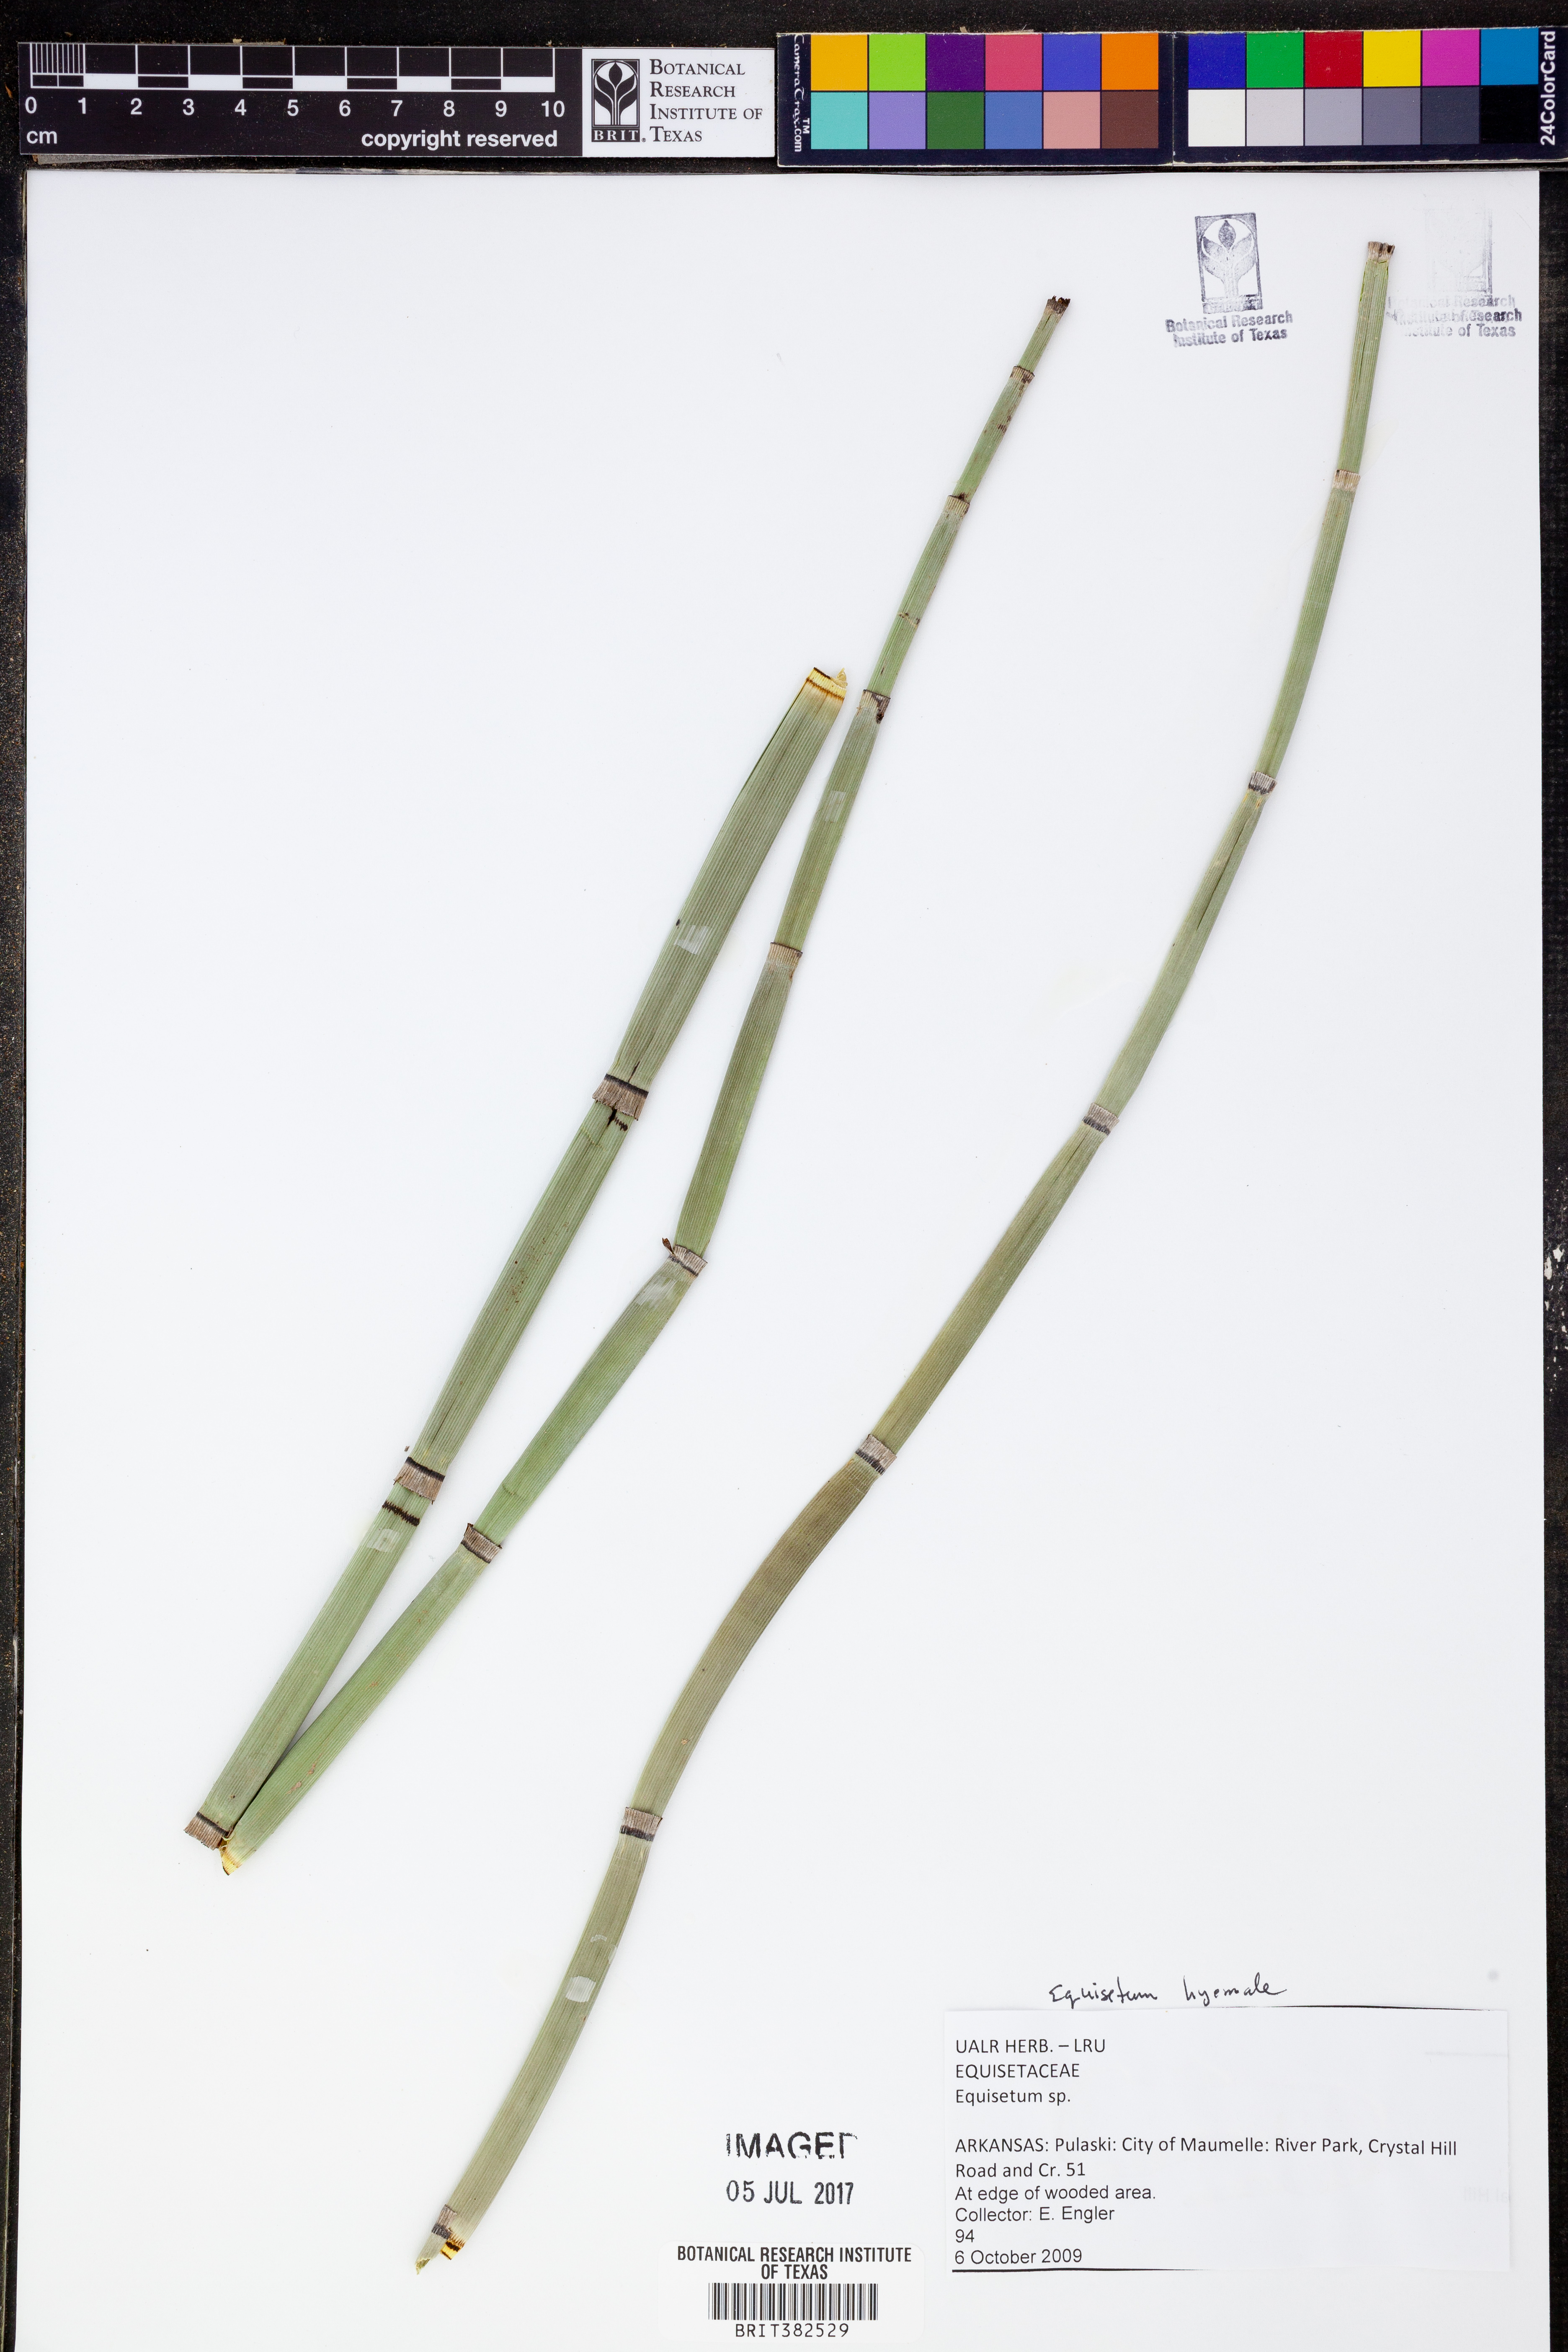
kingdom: Plantae
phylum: Tracheophyta
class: Polypodiopsida
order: Equisetales
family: Equisetaceae
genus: Equisetum
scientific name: Equisetum hyemale
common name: Rough horsetail
